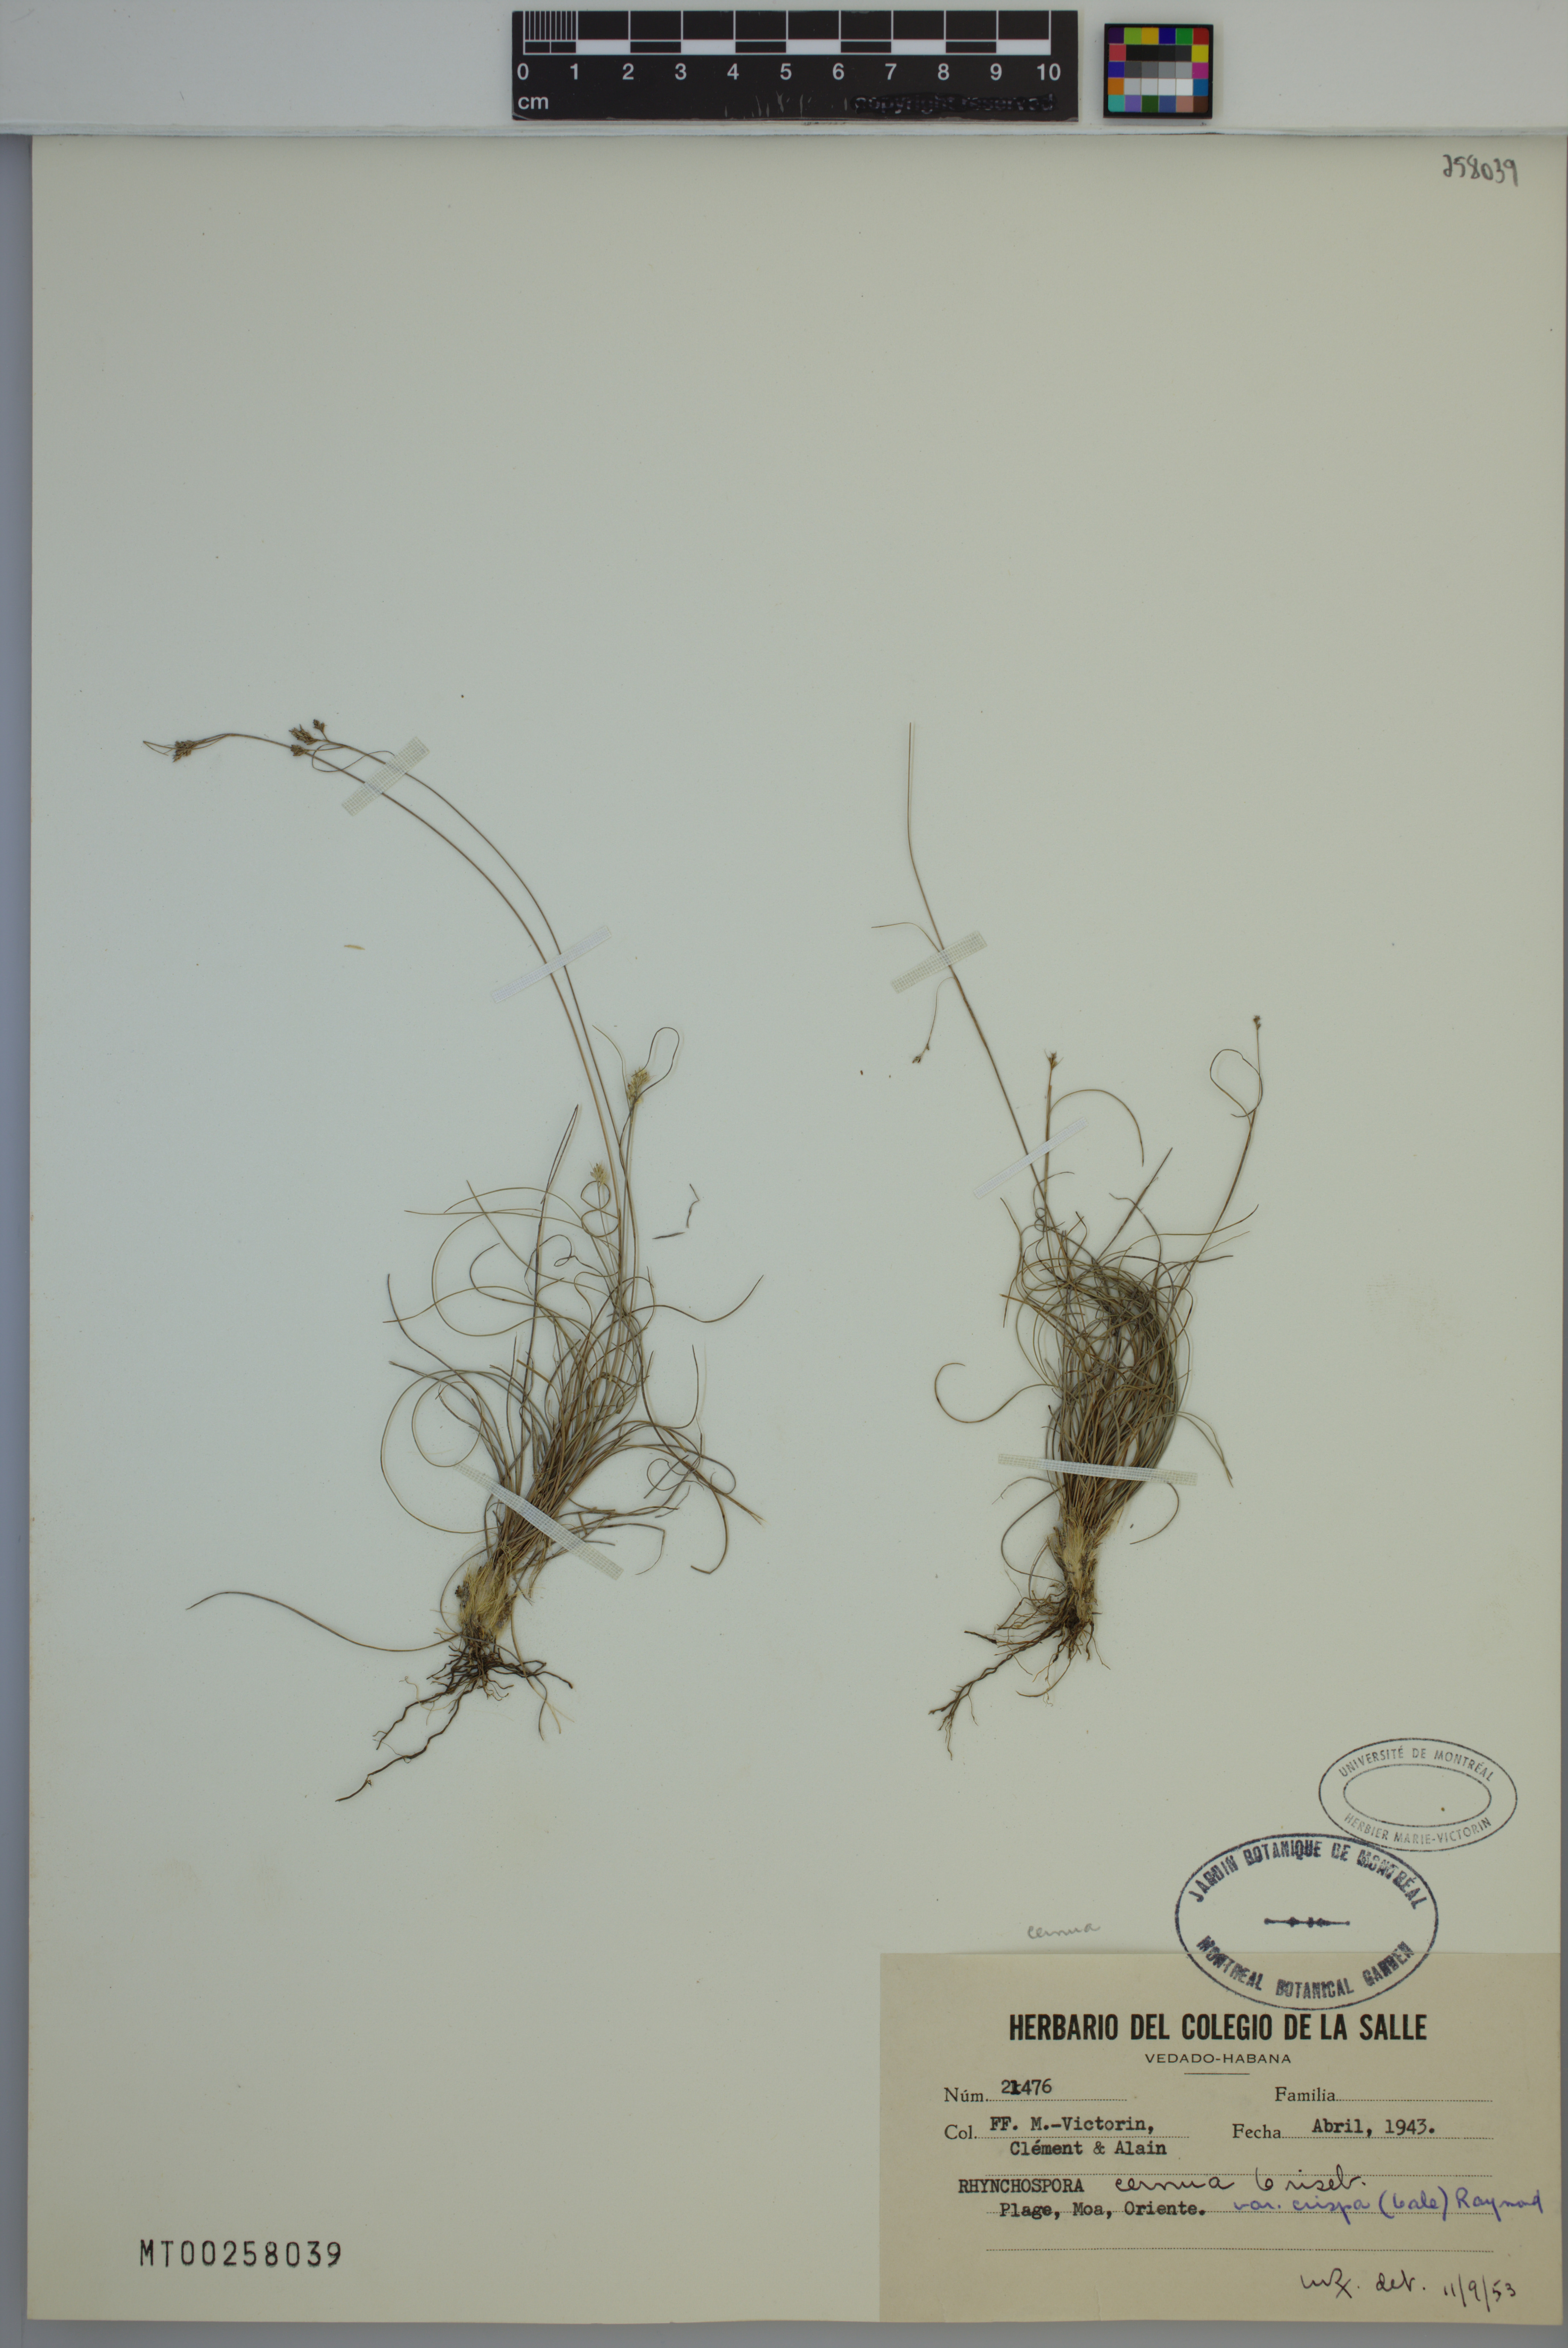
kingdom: Plantae
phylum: Tracheophyta
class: Liliopsida
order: Poales
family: Cyperaceae
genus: Rhynchospora
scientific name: Rhynchospora cernua
